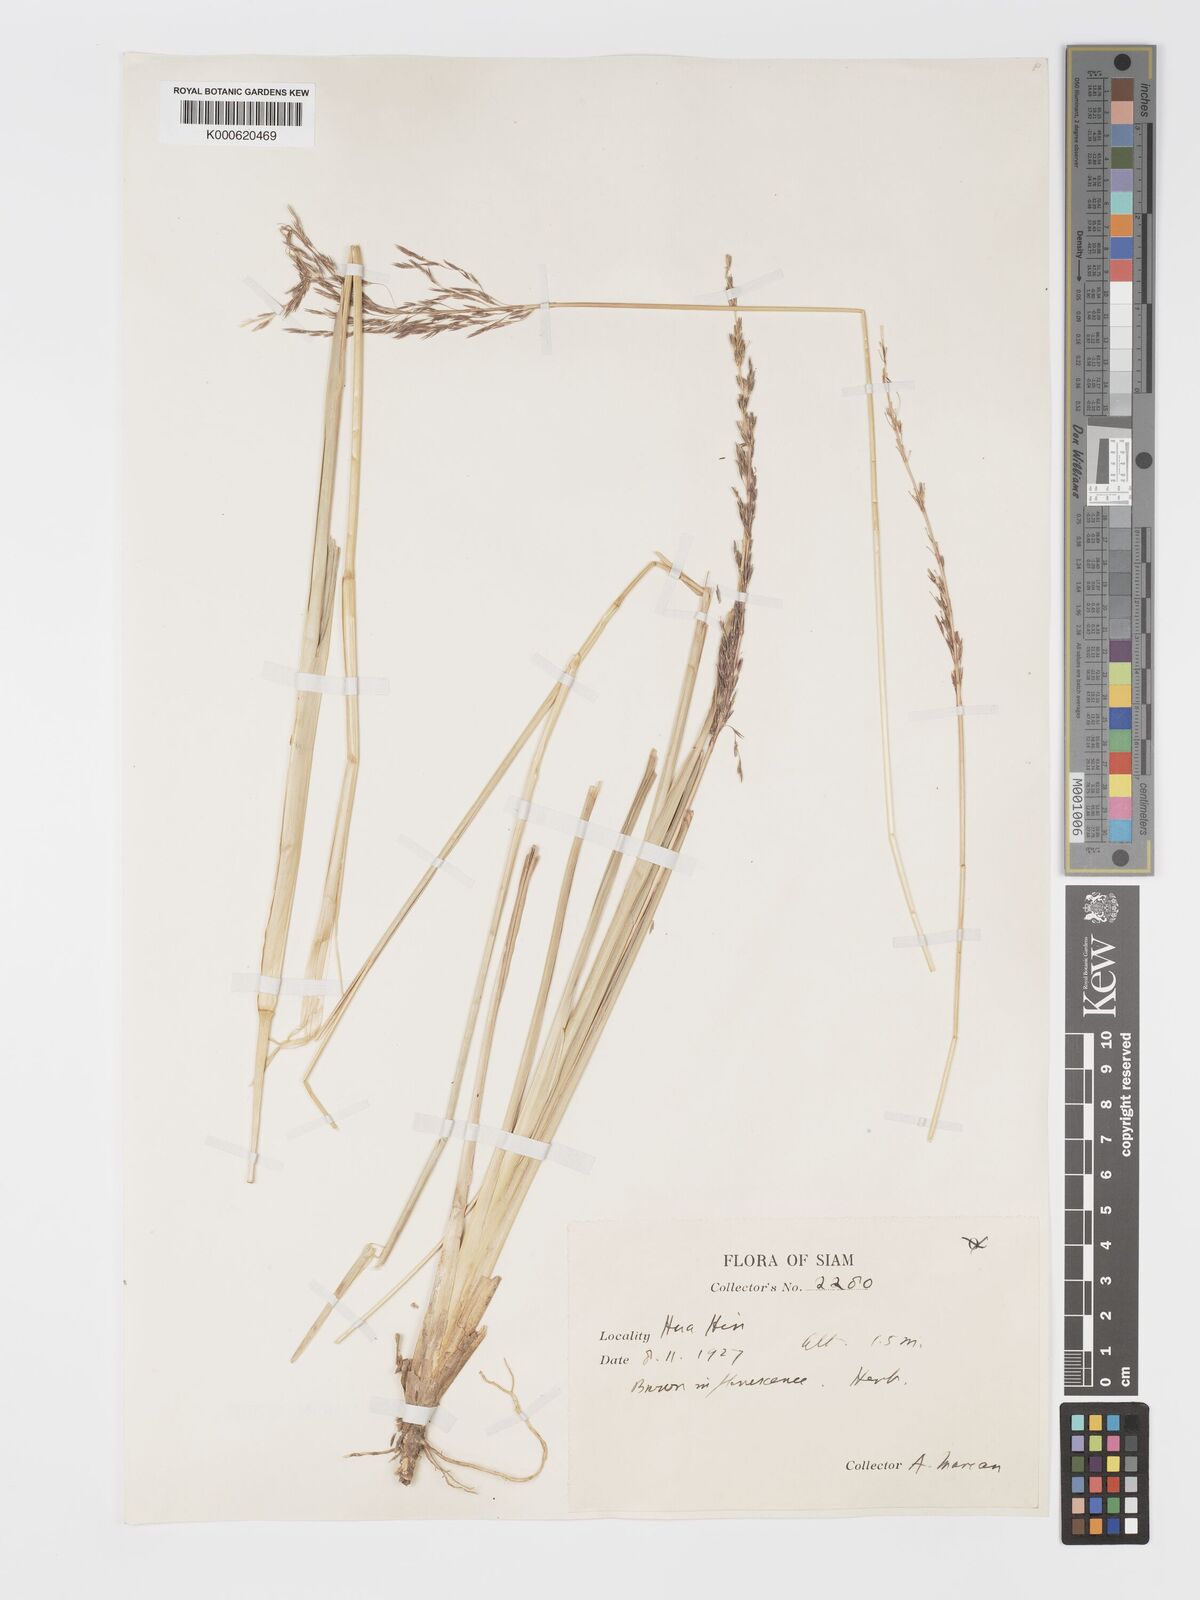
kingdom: Plantae
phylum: Tracheophyta
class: Liliopsida
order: Poales
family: Poaceae
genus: Chrysopogon
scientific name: Chrysopogon zizanioides
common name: False beardgrass
